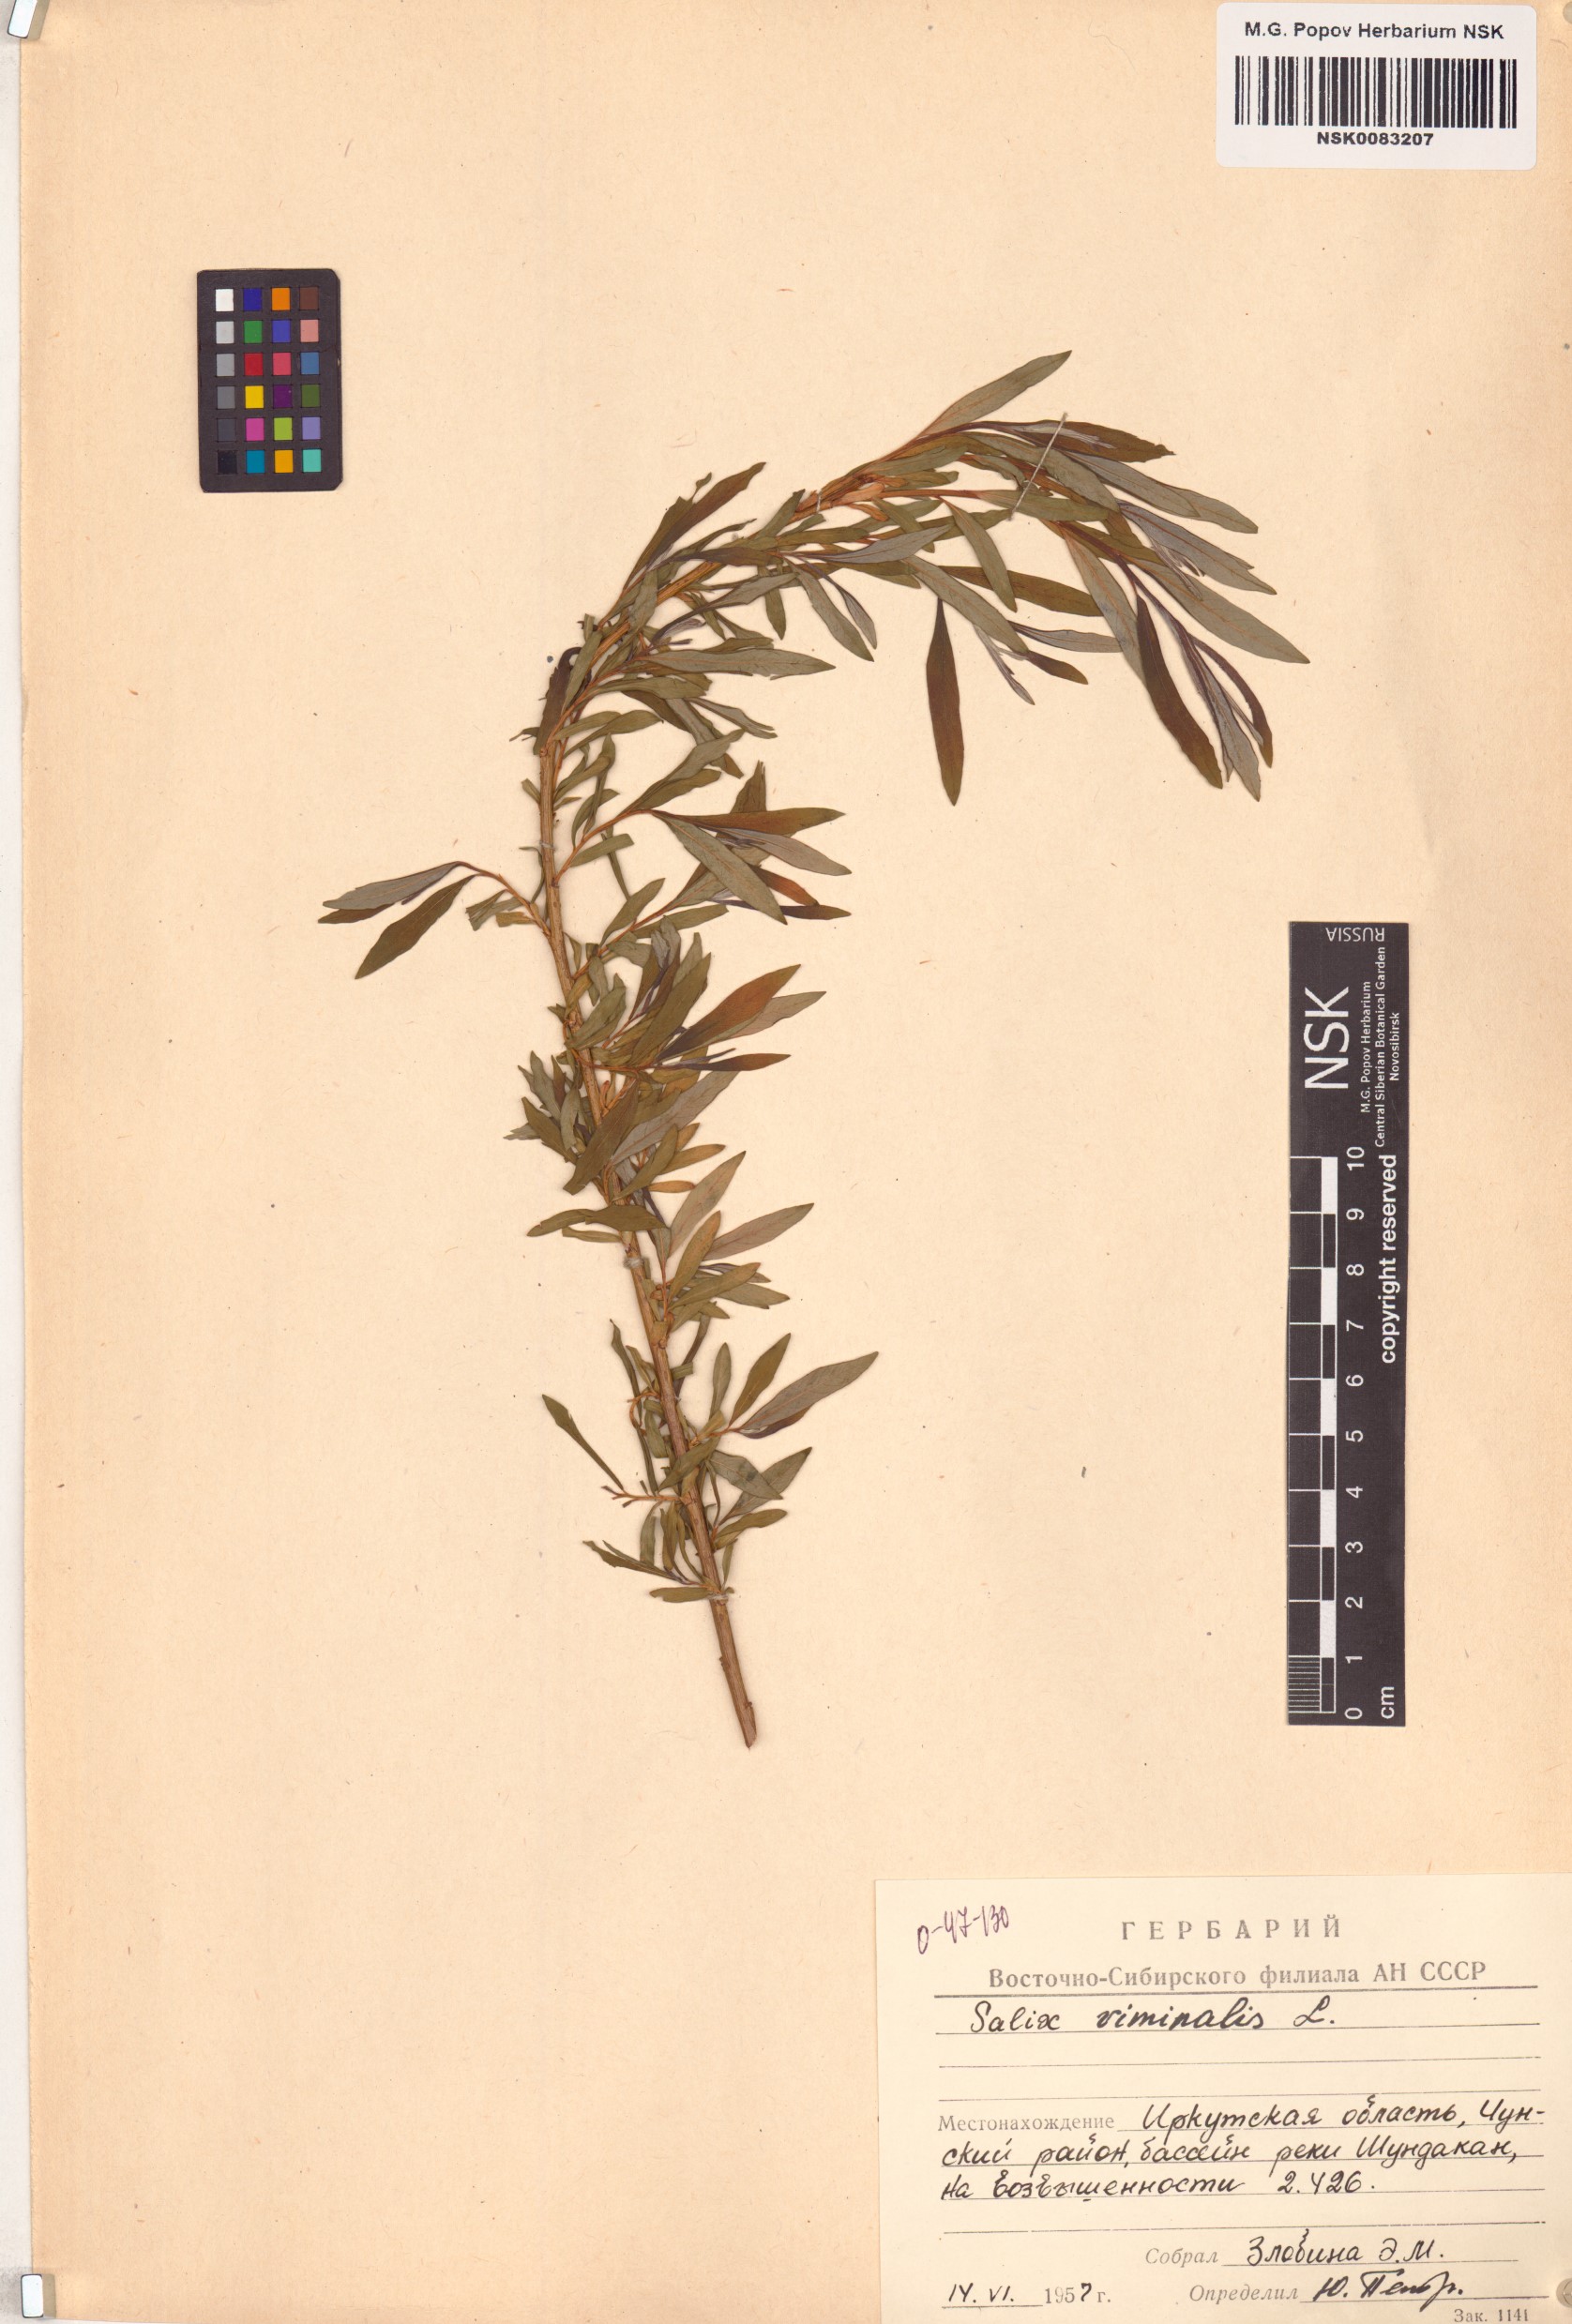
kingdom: Plantae
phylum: Tracheophyta
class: Magnoliopsida
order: Malpighiales
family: Salicaceae
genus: Salix
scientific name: Salix viminalis
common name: Osier
